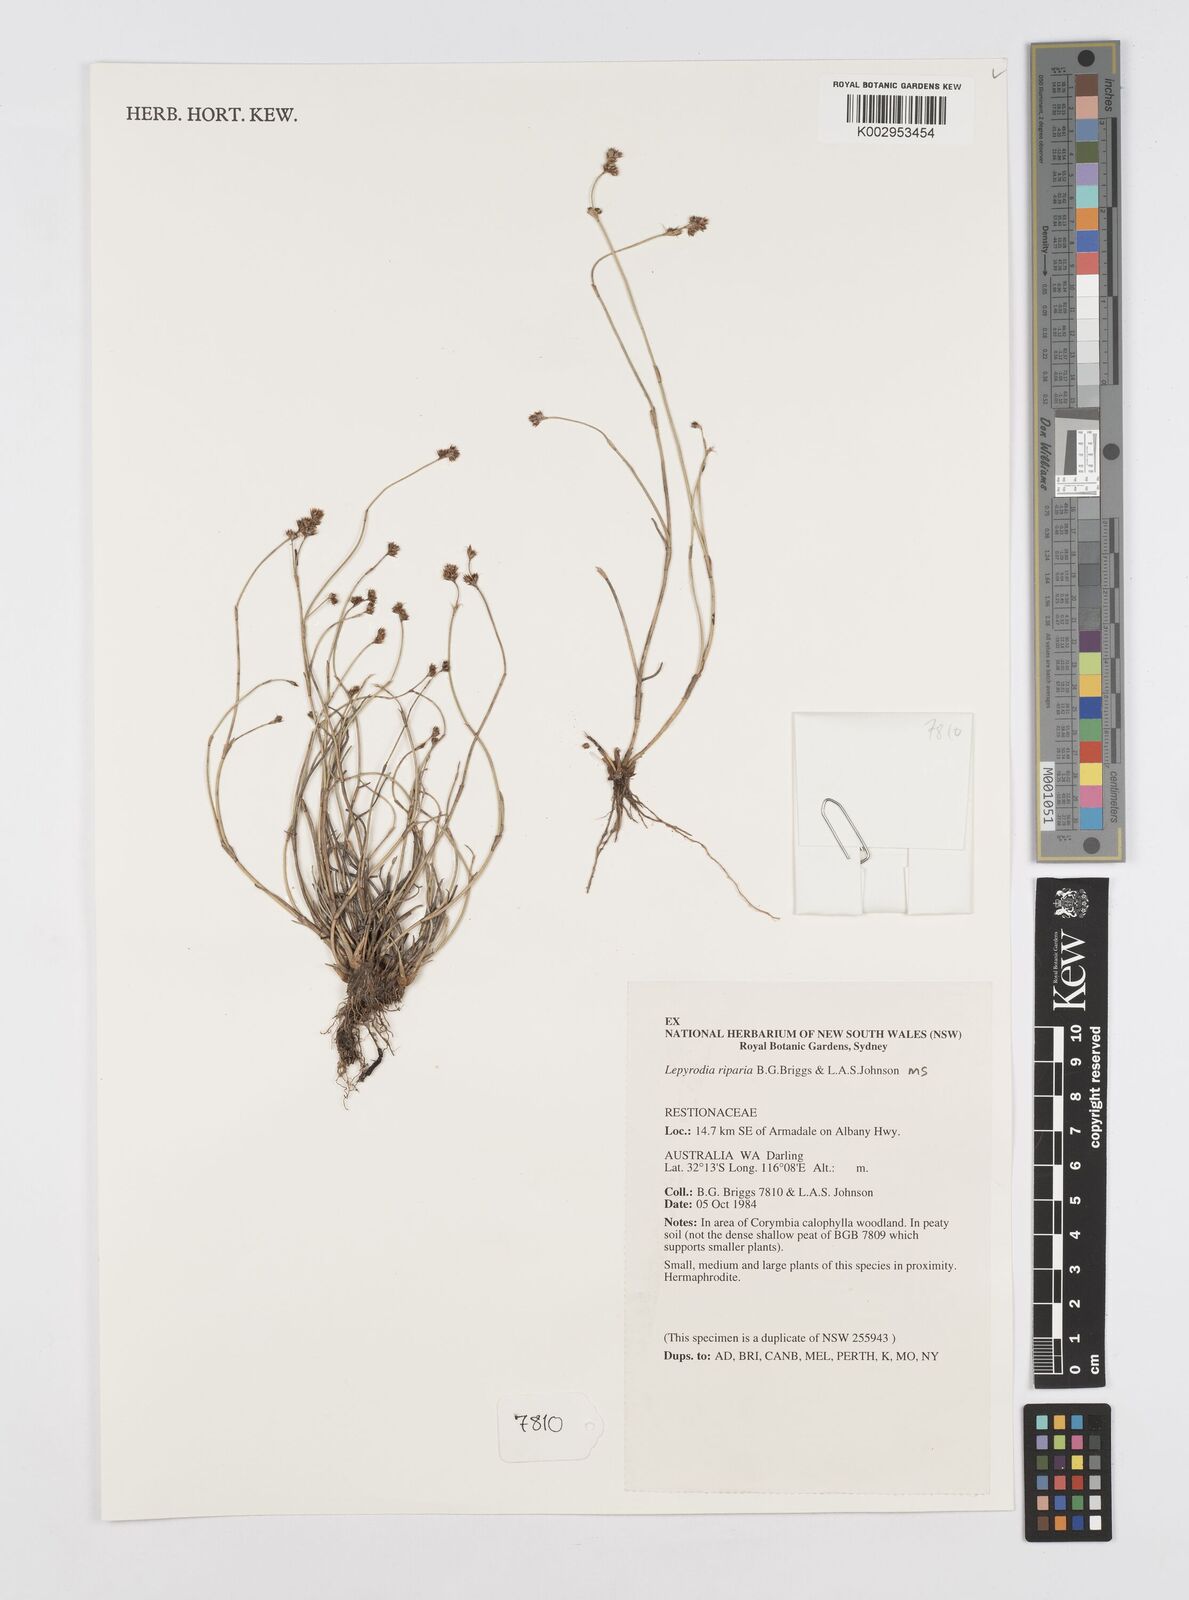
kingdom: Plantae
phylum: Tracheophyta
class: Liliopsida
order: Poales
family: Restionaceae
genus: Lepyrodia
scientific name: Lepyrodia riparia
